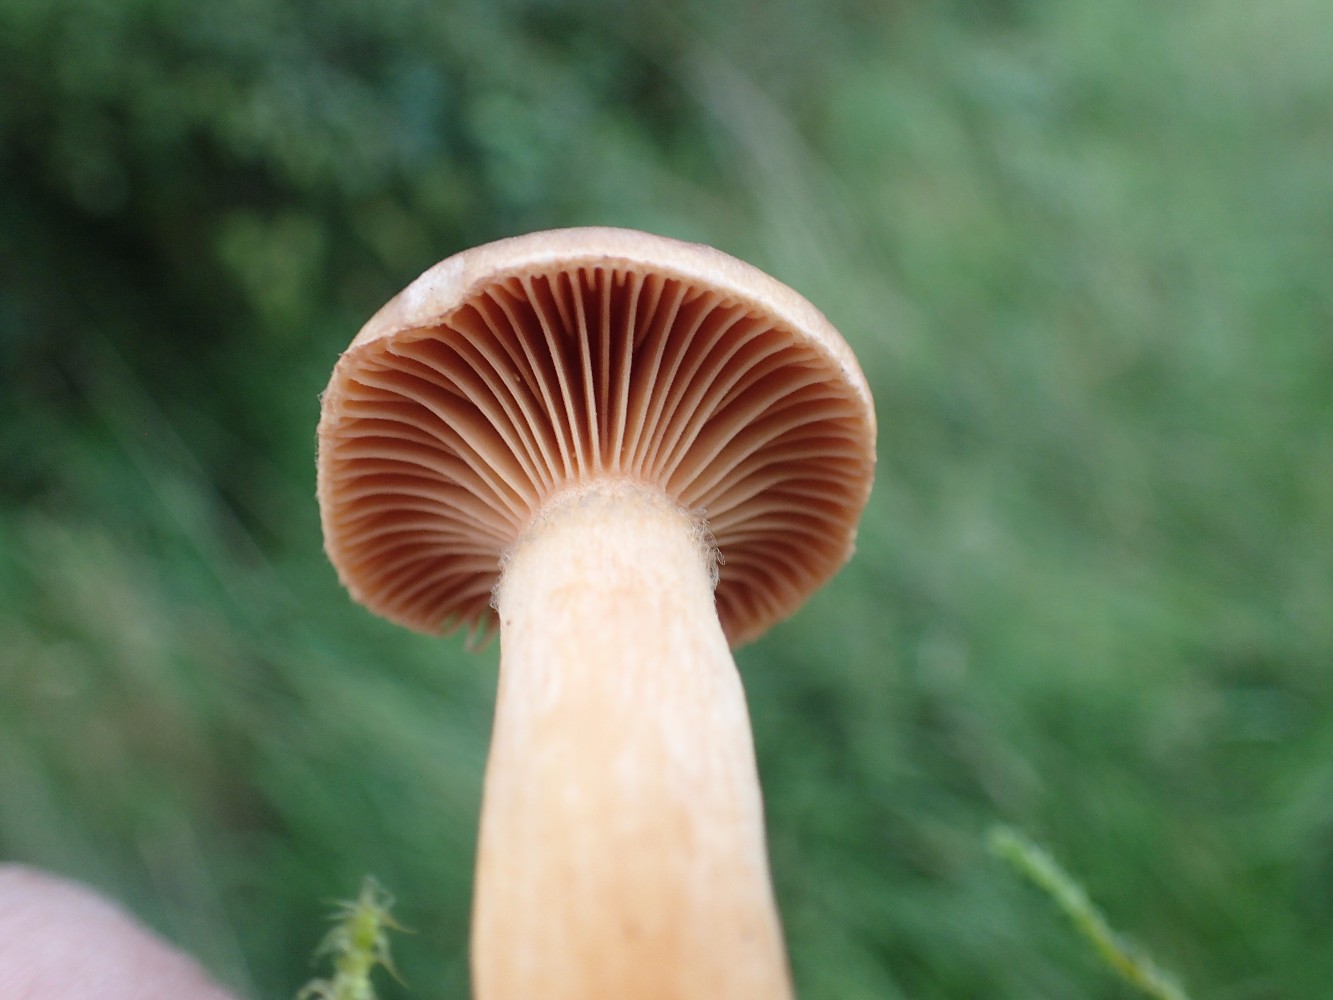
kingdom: Fungi
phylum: Basidiomycota
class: Agaricomycetes
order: Boletales
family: Gomphidiaceae
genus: Chroogomphus
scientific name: Chroogomphus rutilus
